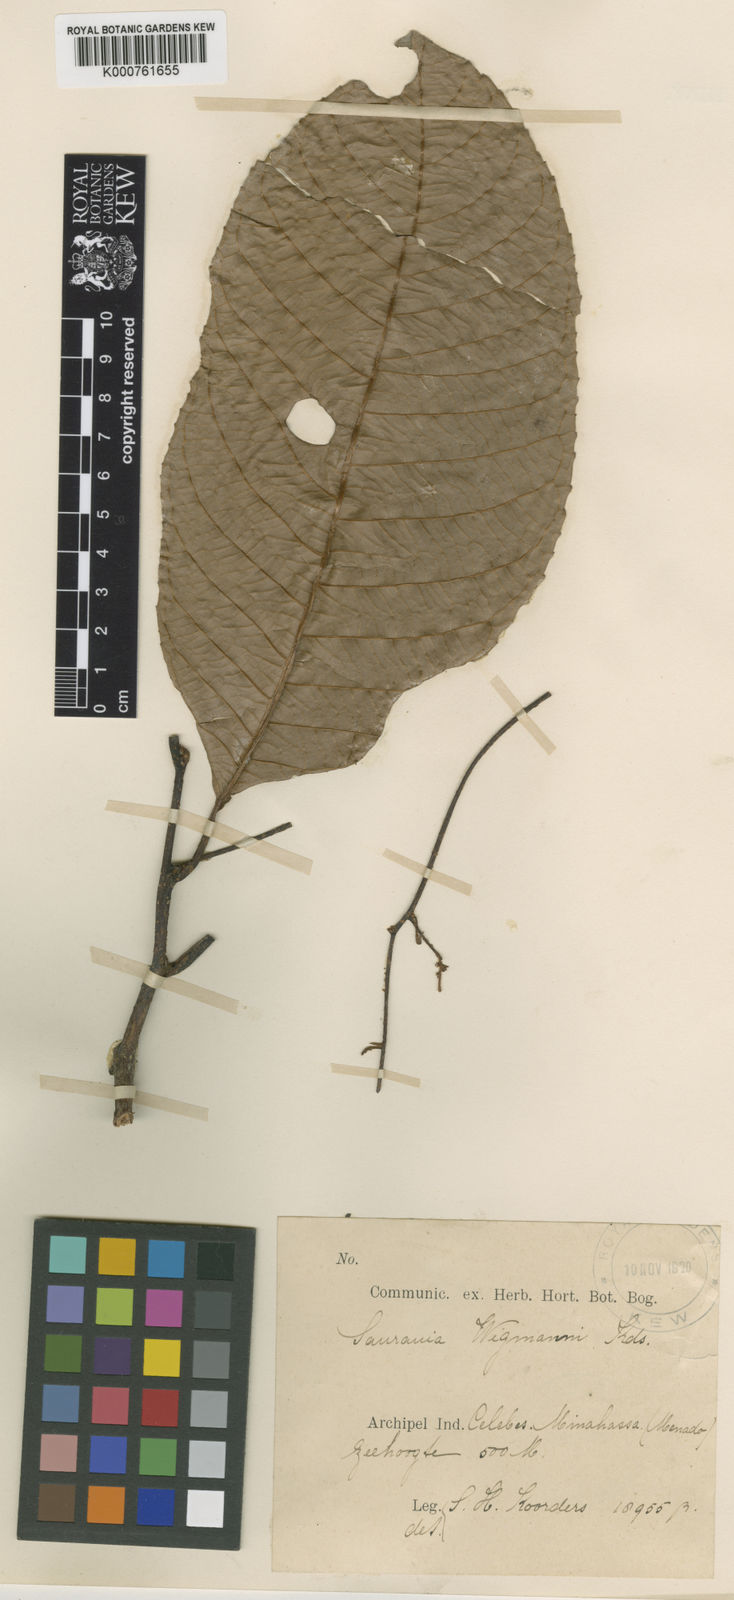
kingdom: Plantae
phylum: Tracheophyta
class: Magnoliopsida
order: Ericales
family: Actinidiaceae
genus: Saurauia
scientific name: Saurauia wigmanii
